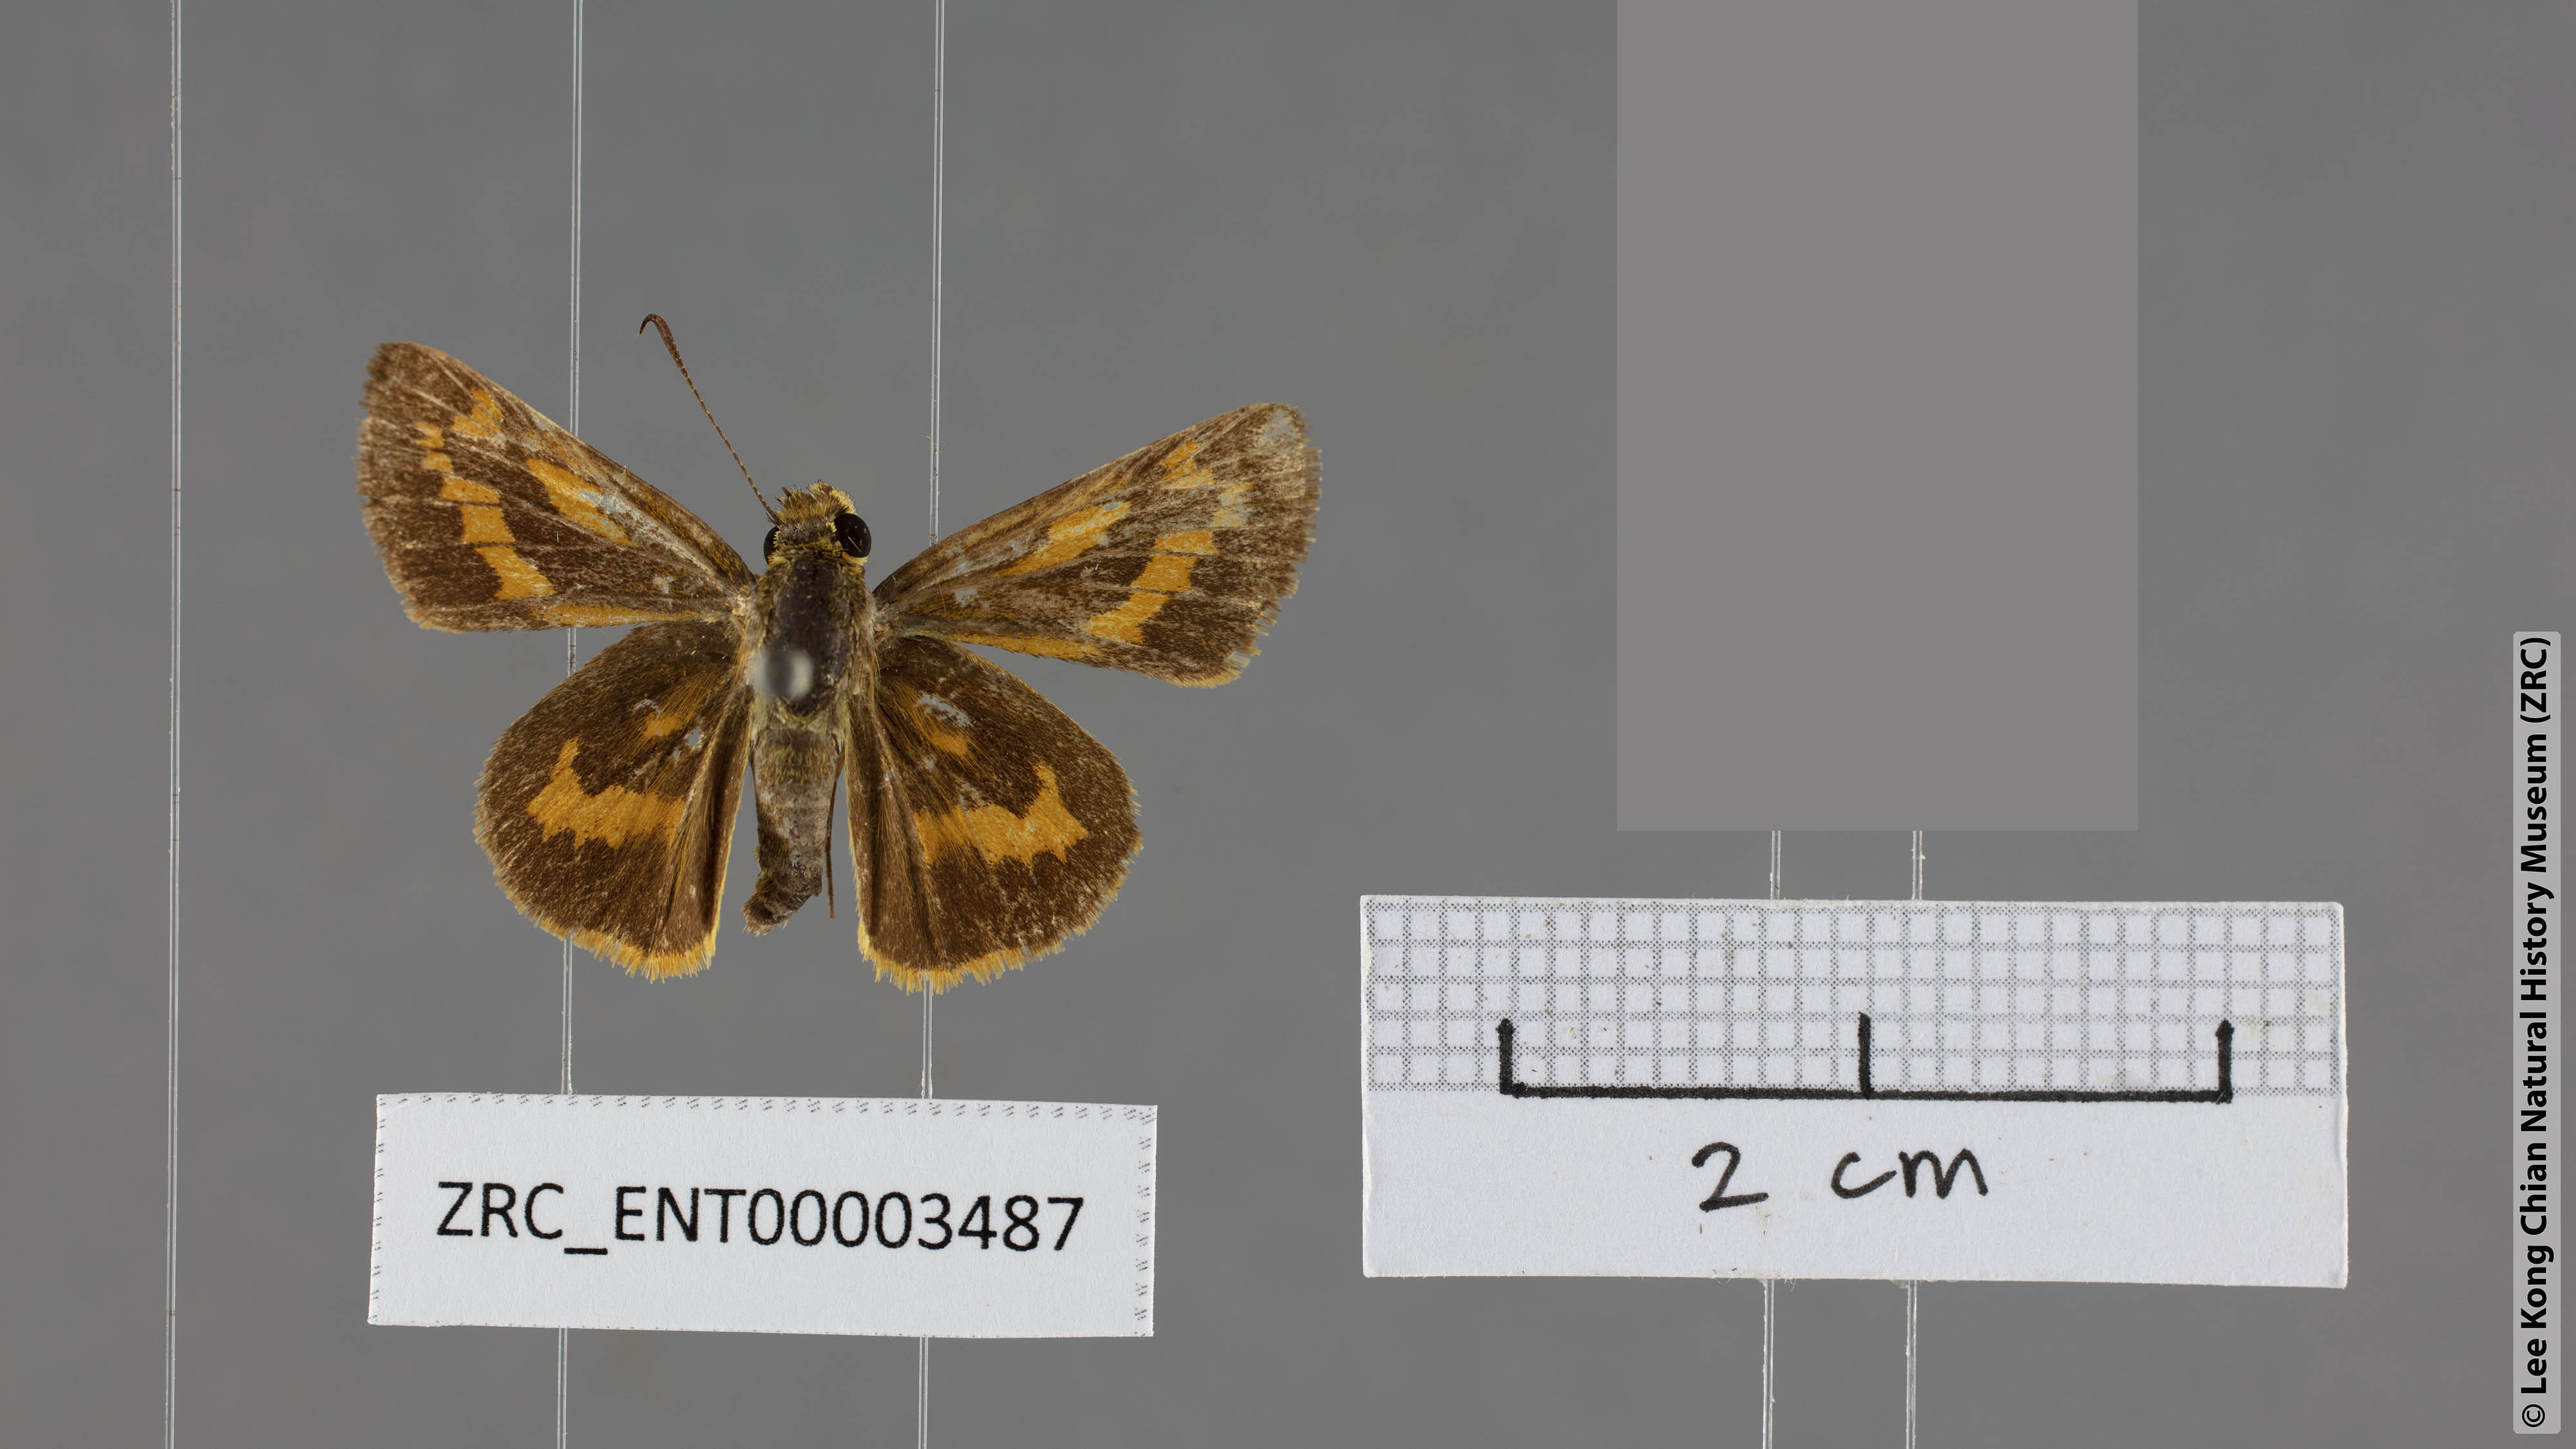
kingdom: Animalia
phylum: Arthropoda
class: Insecta
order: Lepidoptera
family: Hesperiidae
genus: Potanthus
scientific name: Potanthus pamela
